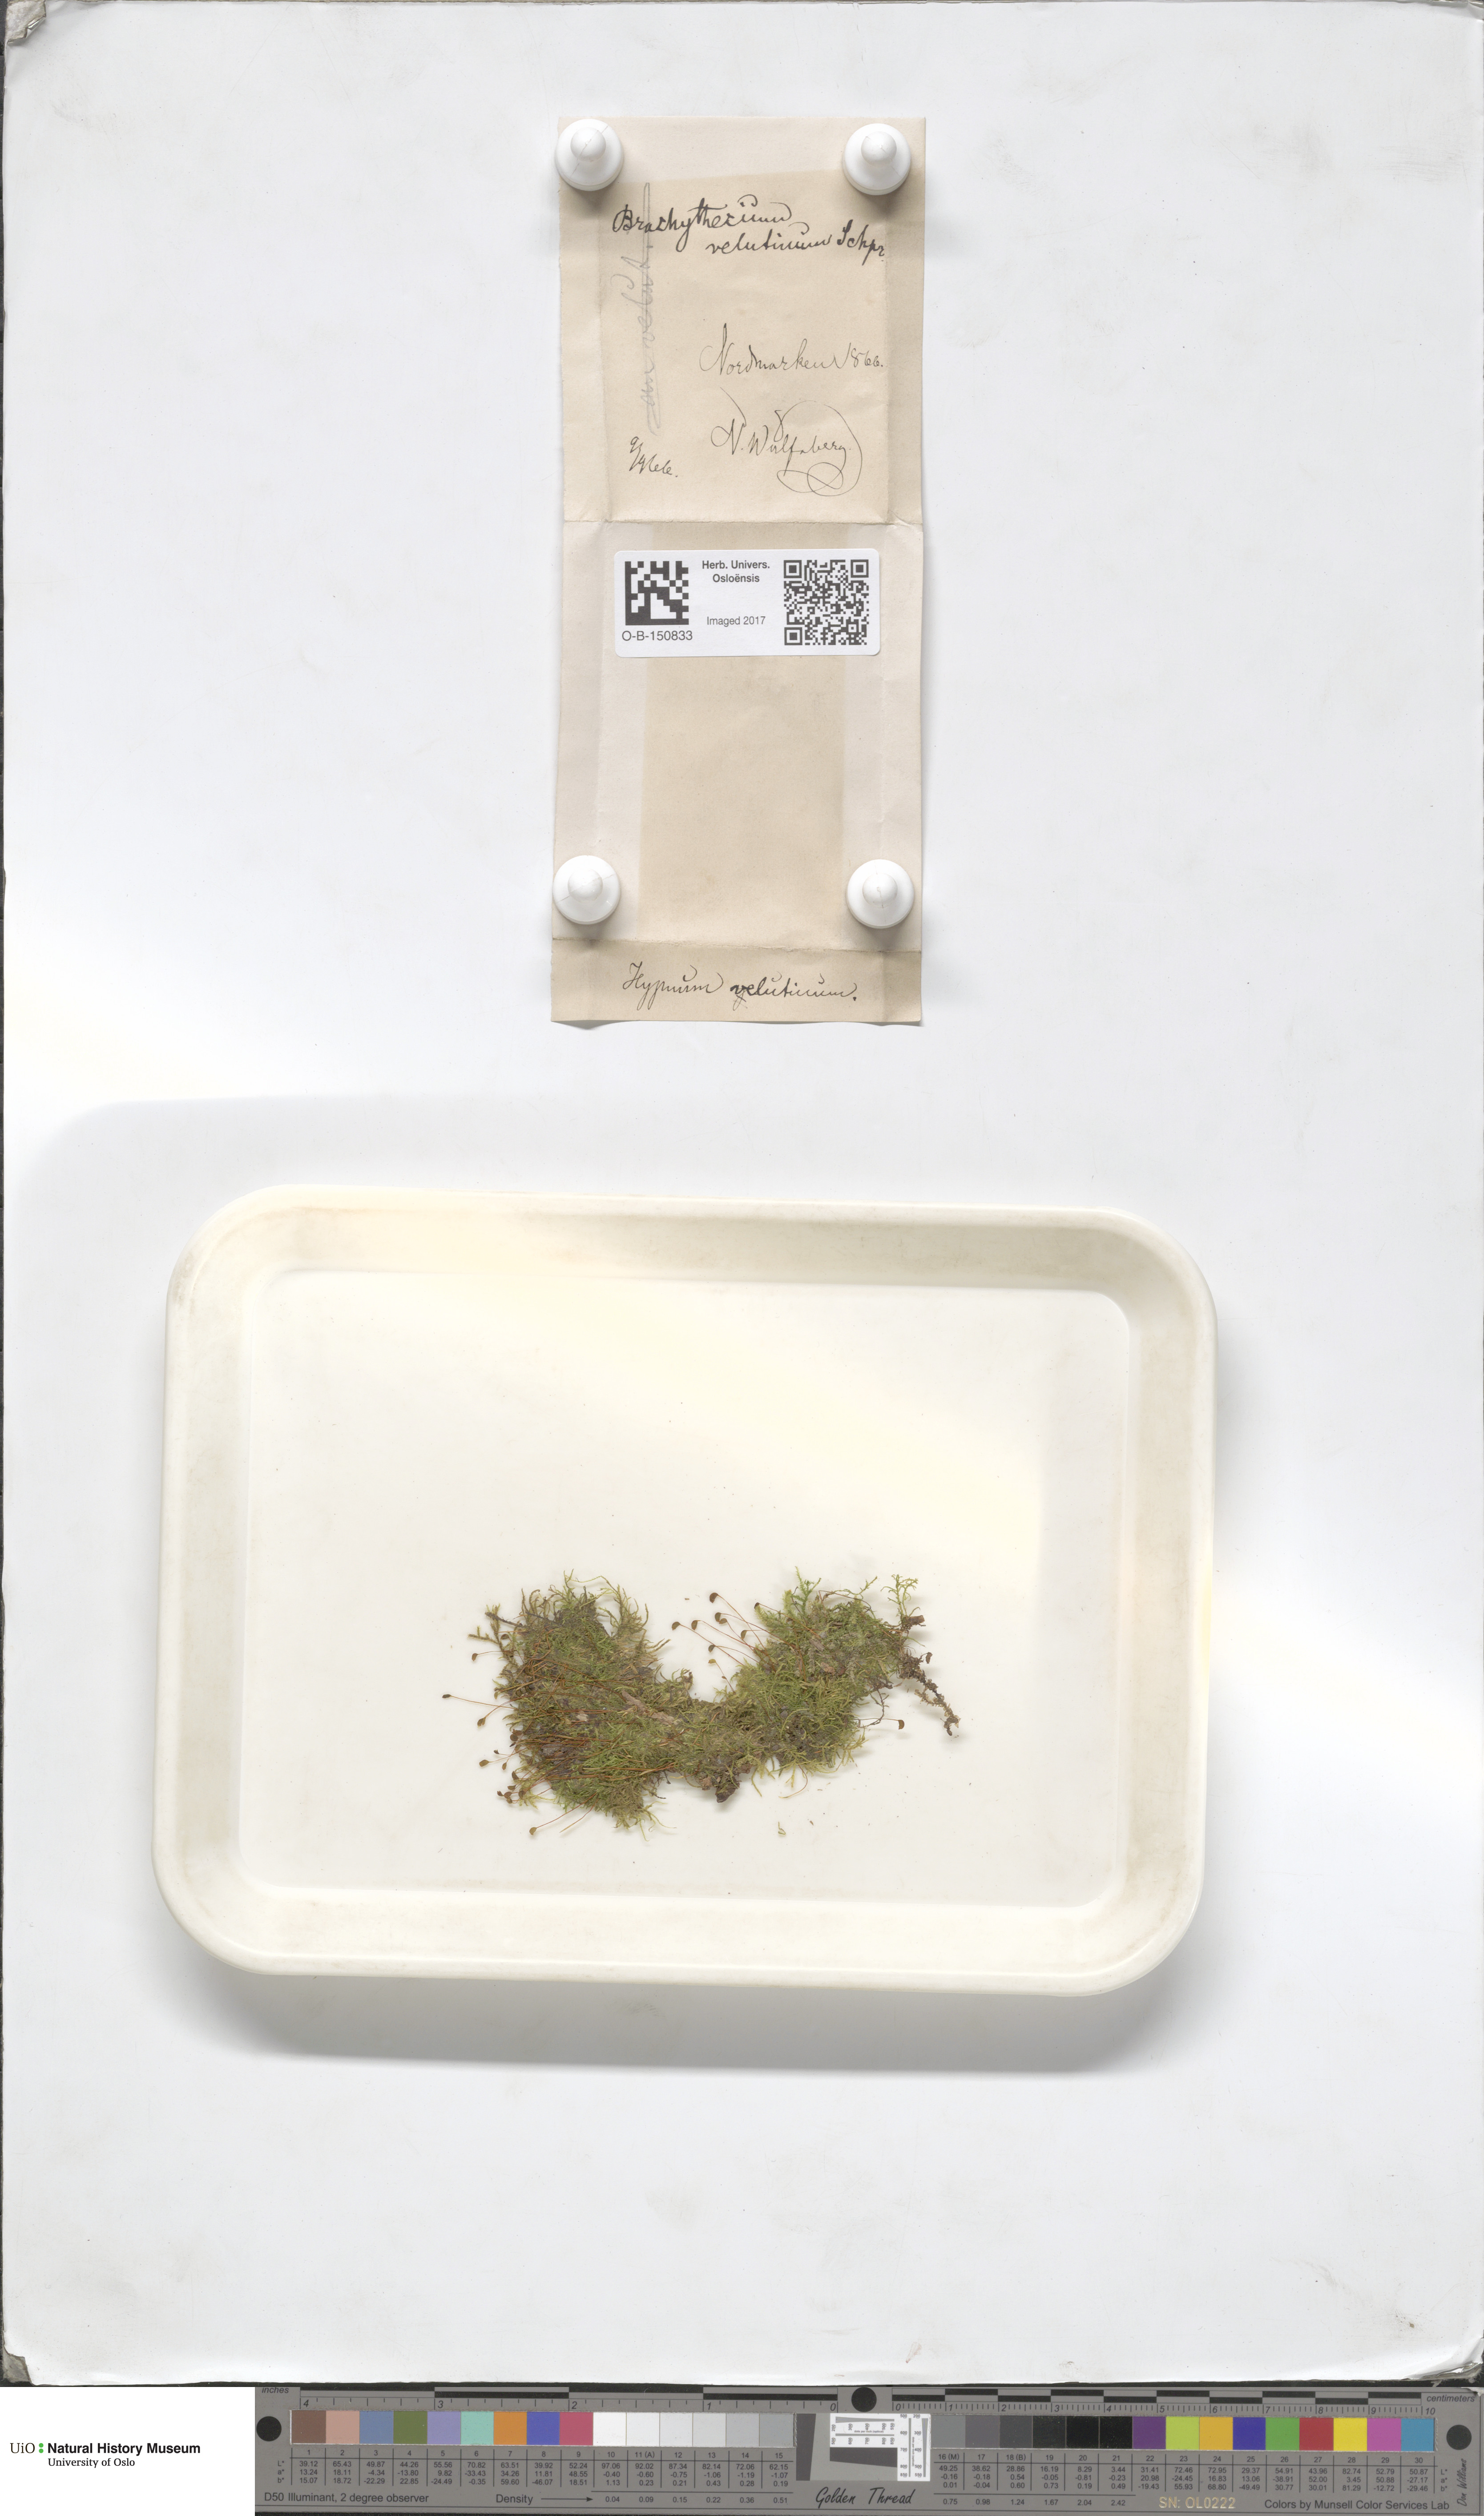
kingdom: Plantae
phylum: Bryophyta
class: Bryopsida
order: Hypnales
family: Brachytheciaceae
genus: Brachytheciastrum
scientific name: Brachytheciastrum velutinum
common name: Velvet feather-moss
